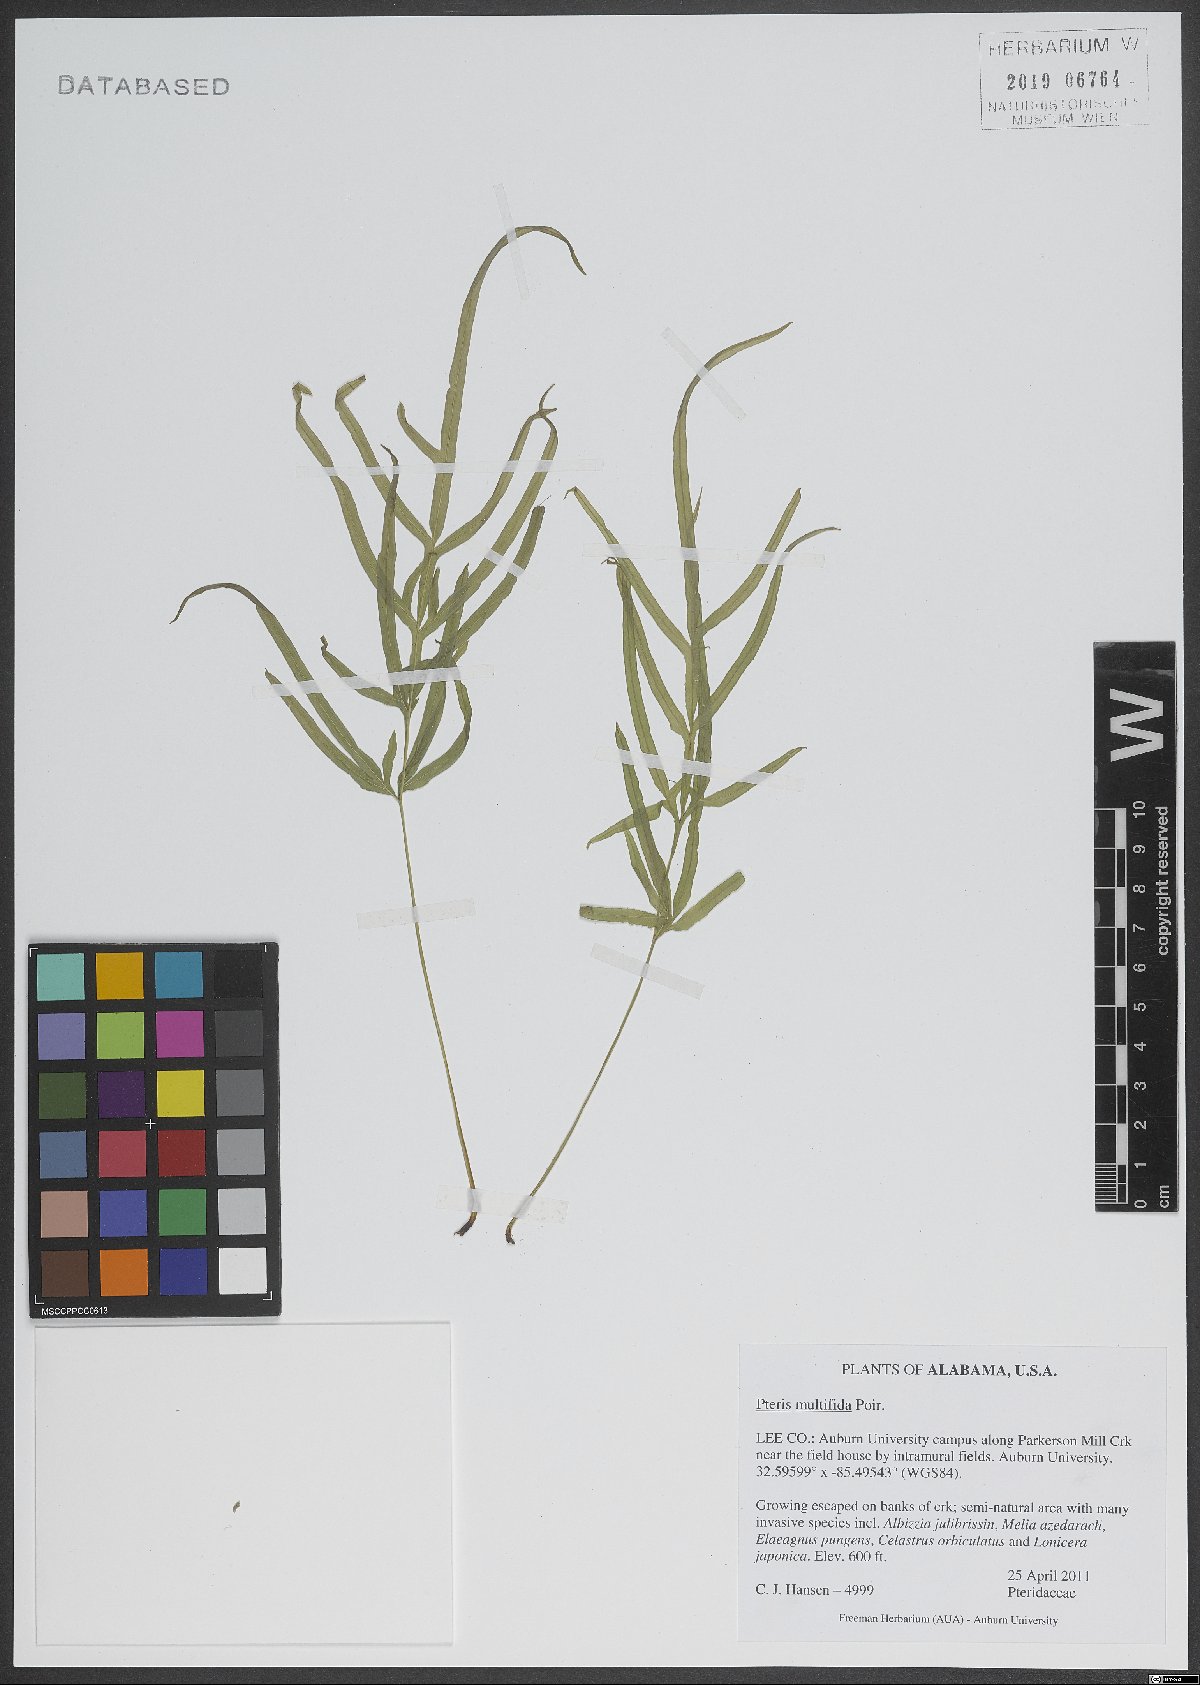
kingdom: Plantae
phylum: Tracheophyta
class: Polypodiopsida
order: Polypodiales
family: Pteridaceae
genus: Pteris
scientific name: Pteris multifida
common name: Spider brake
